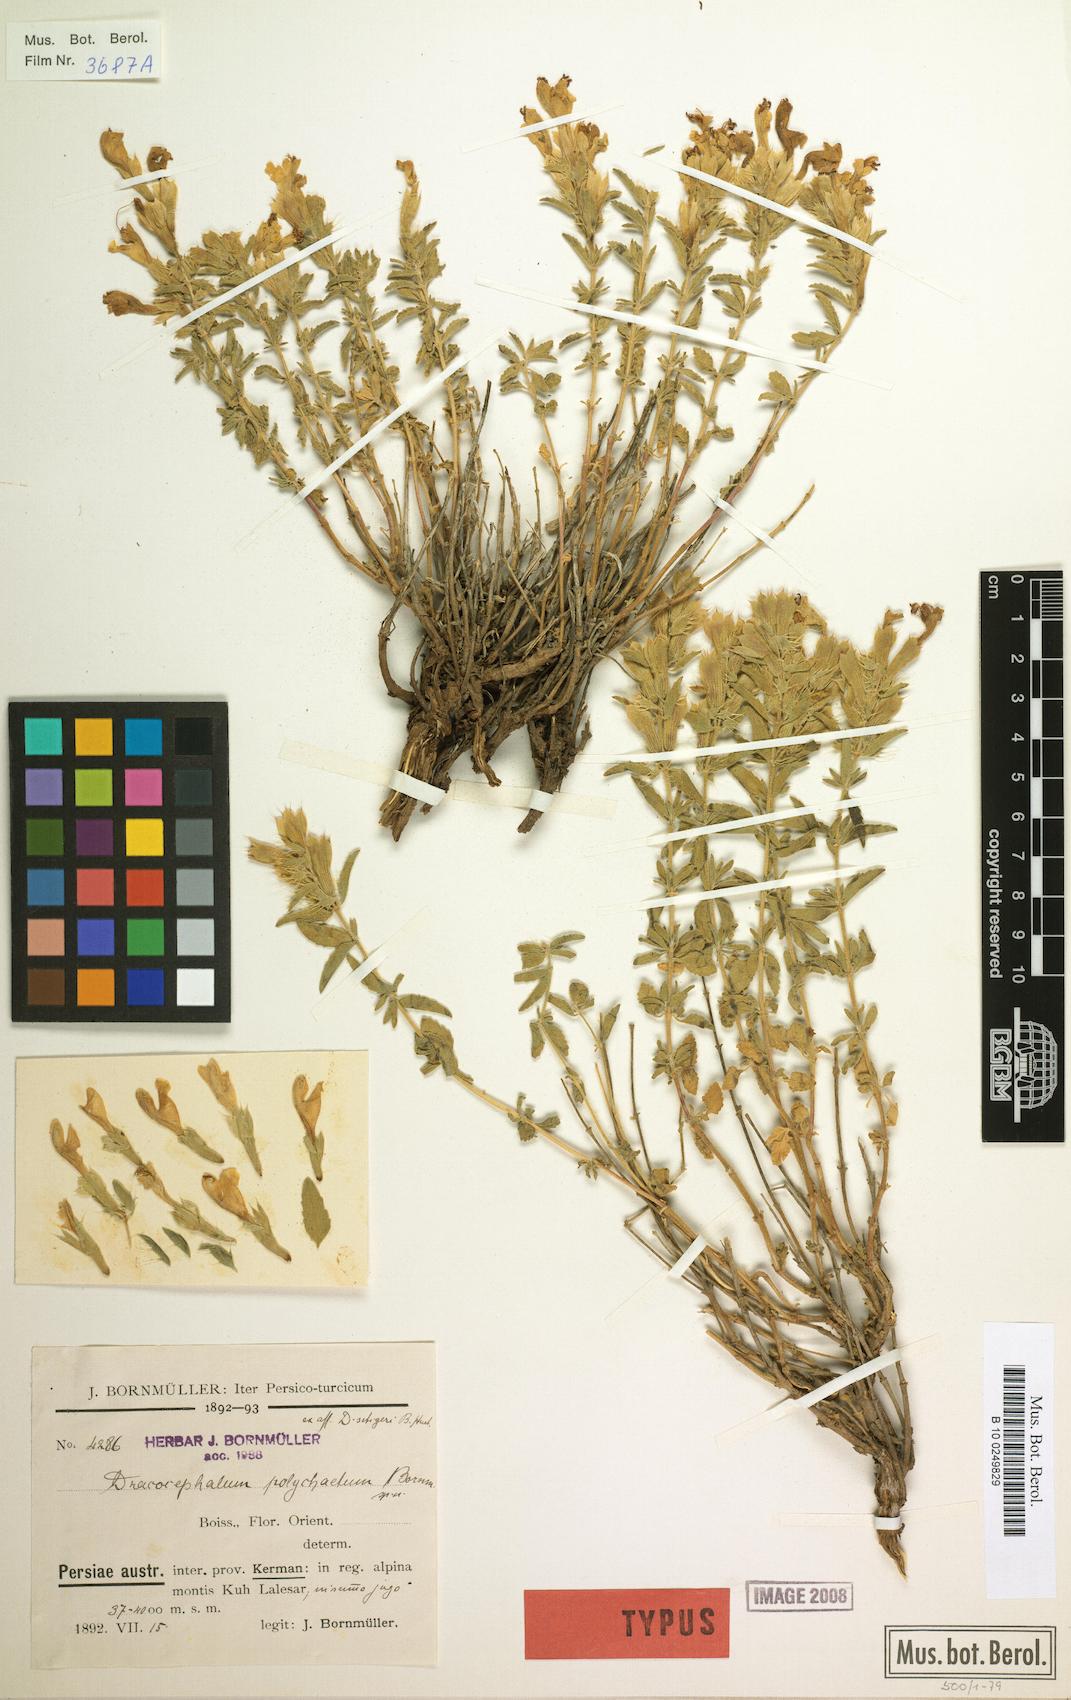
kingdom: Plantae
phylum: Tracheophyta
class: Magnoliopsida
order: Lamiales
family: Lamiaceae
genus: Dracocephalum
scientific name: Dracocephalum polychaetum
